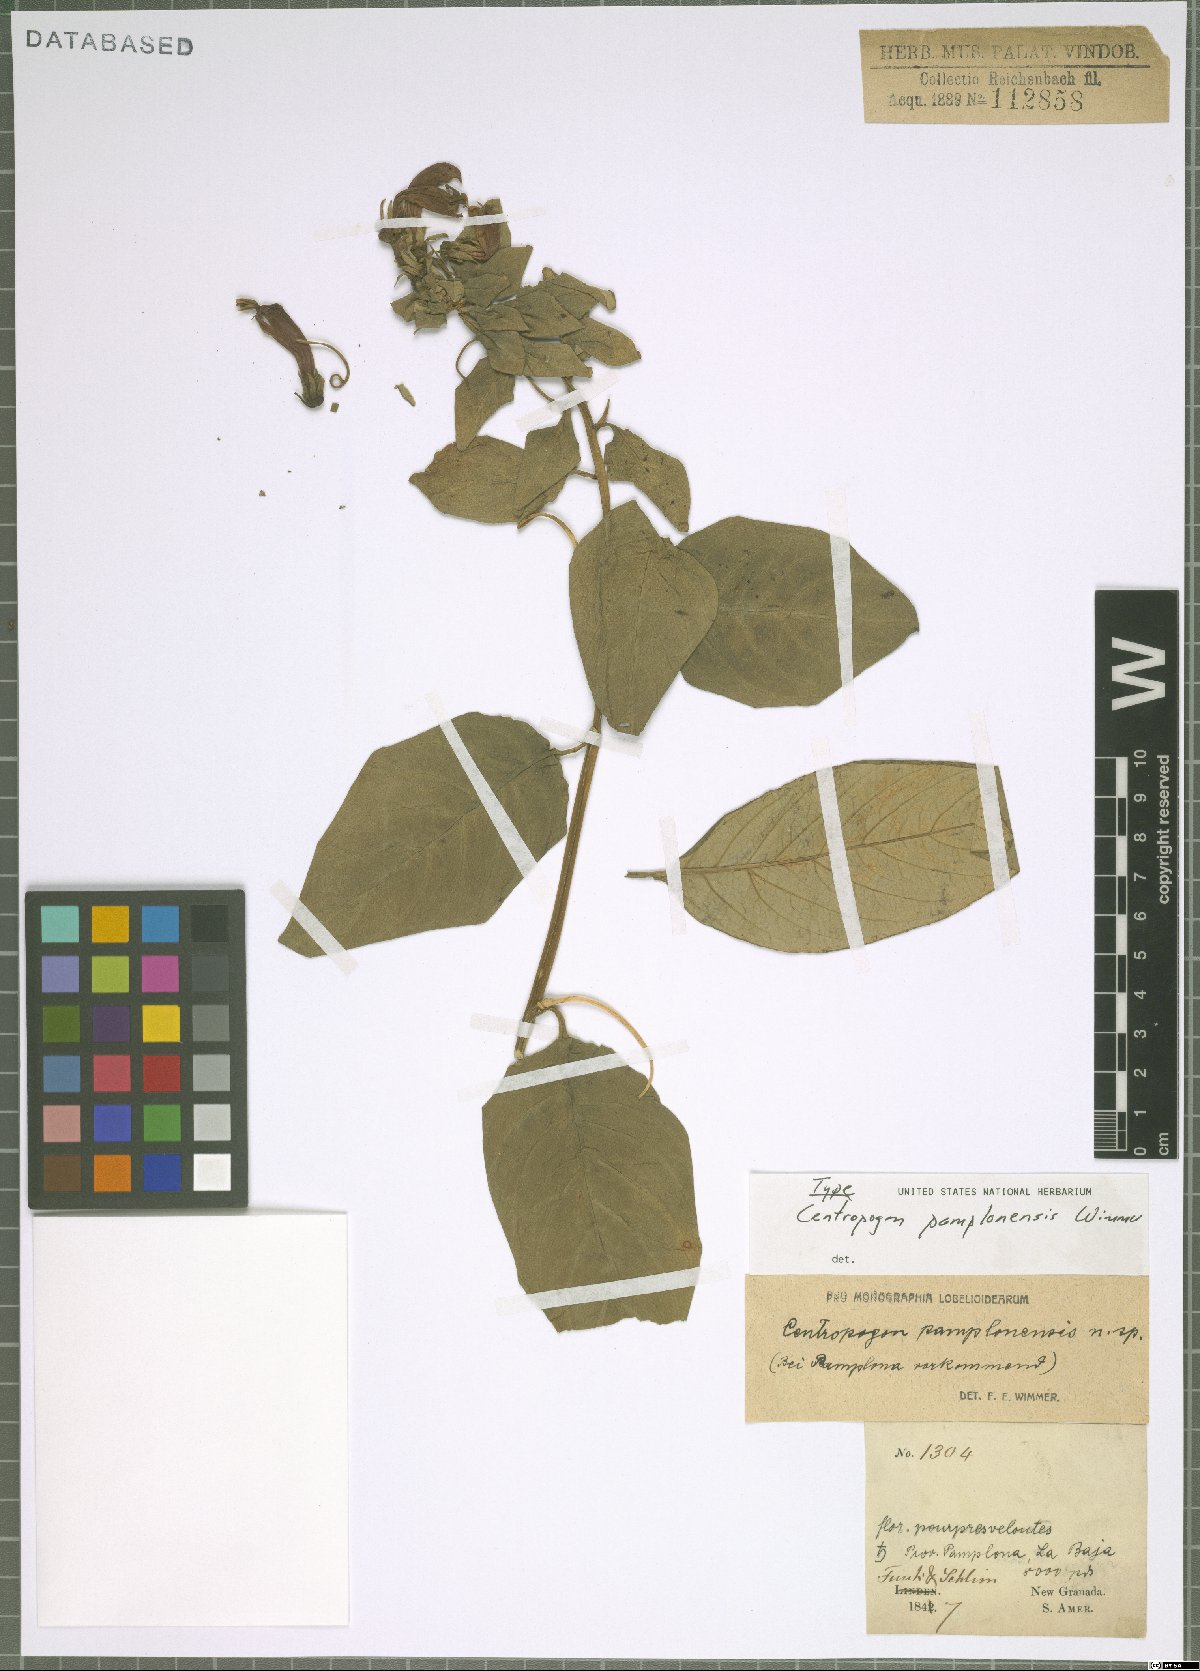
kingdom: Plantae
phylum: Tracheophyta
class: Magnoliopsida
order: Asterales
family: Campanulaceae
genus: Centropogon
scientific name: Centropogon pamplonensis
